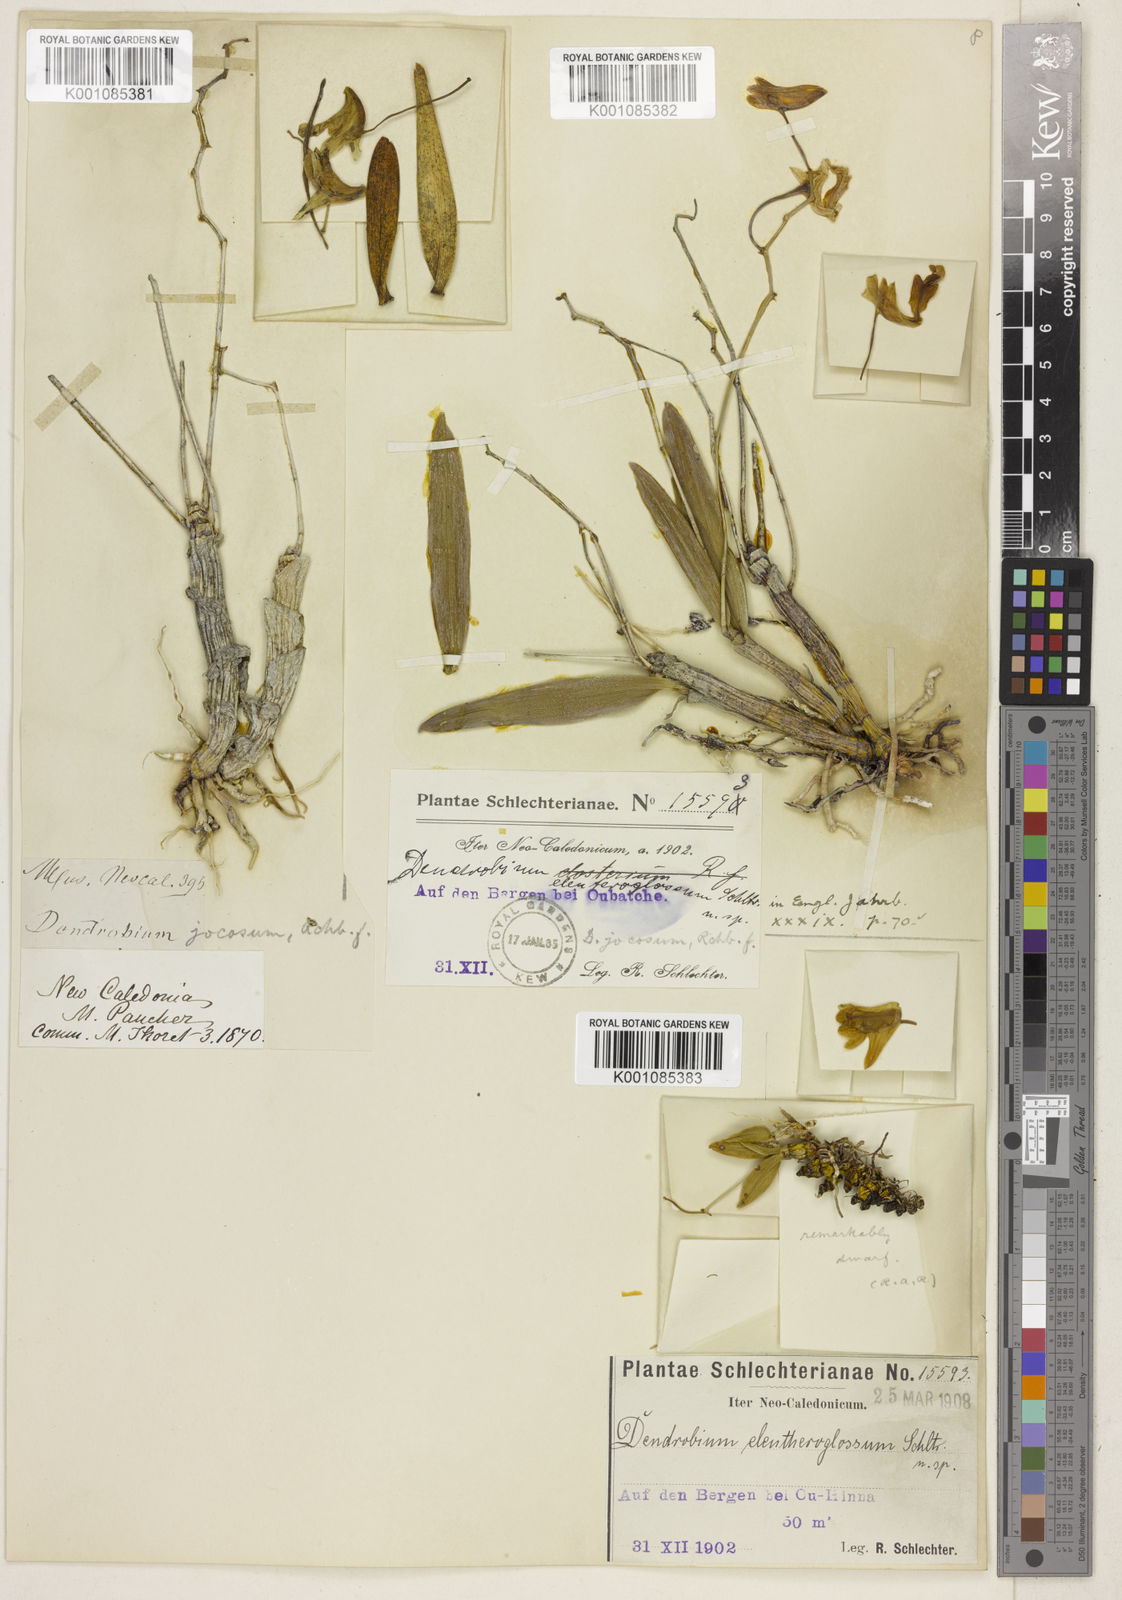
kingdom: Plantae
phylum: Tracheophyta
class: Liliopsida
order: Asparagales
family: Orchidaceae
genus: Dendrobium
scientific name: Dendrobium closterium
